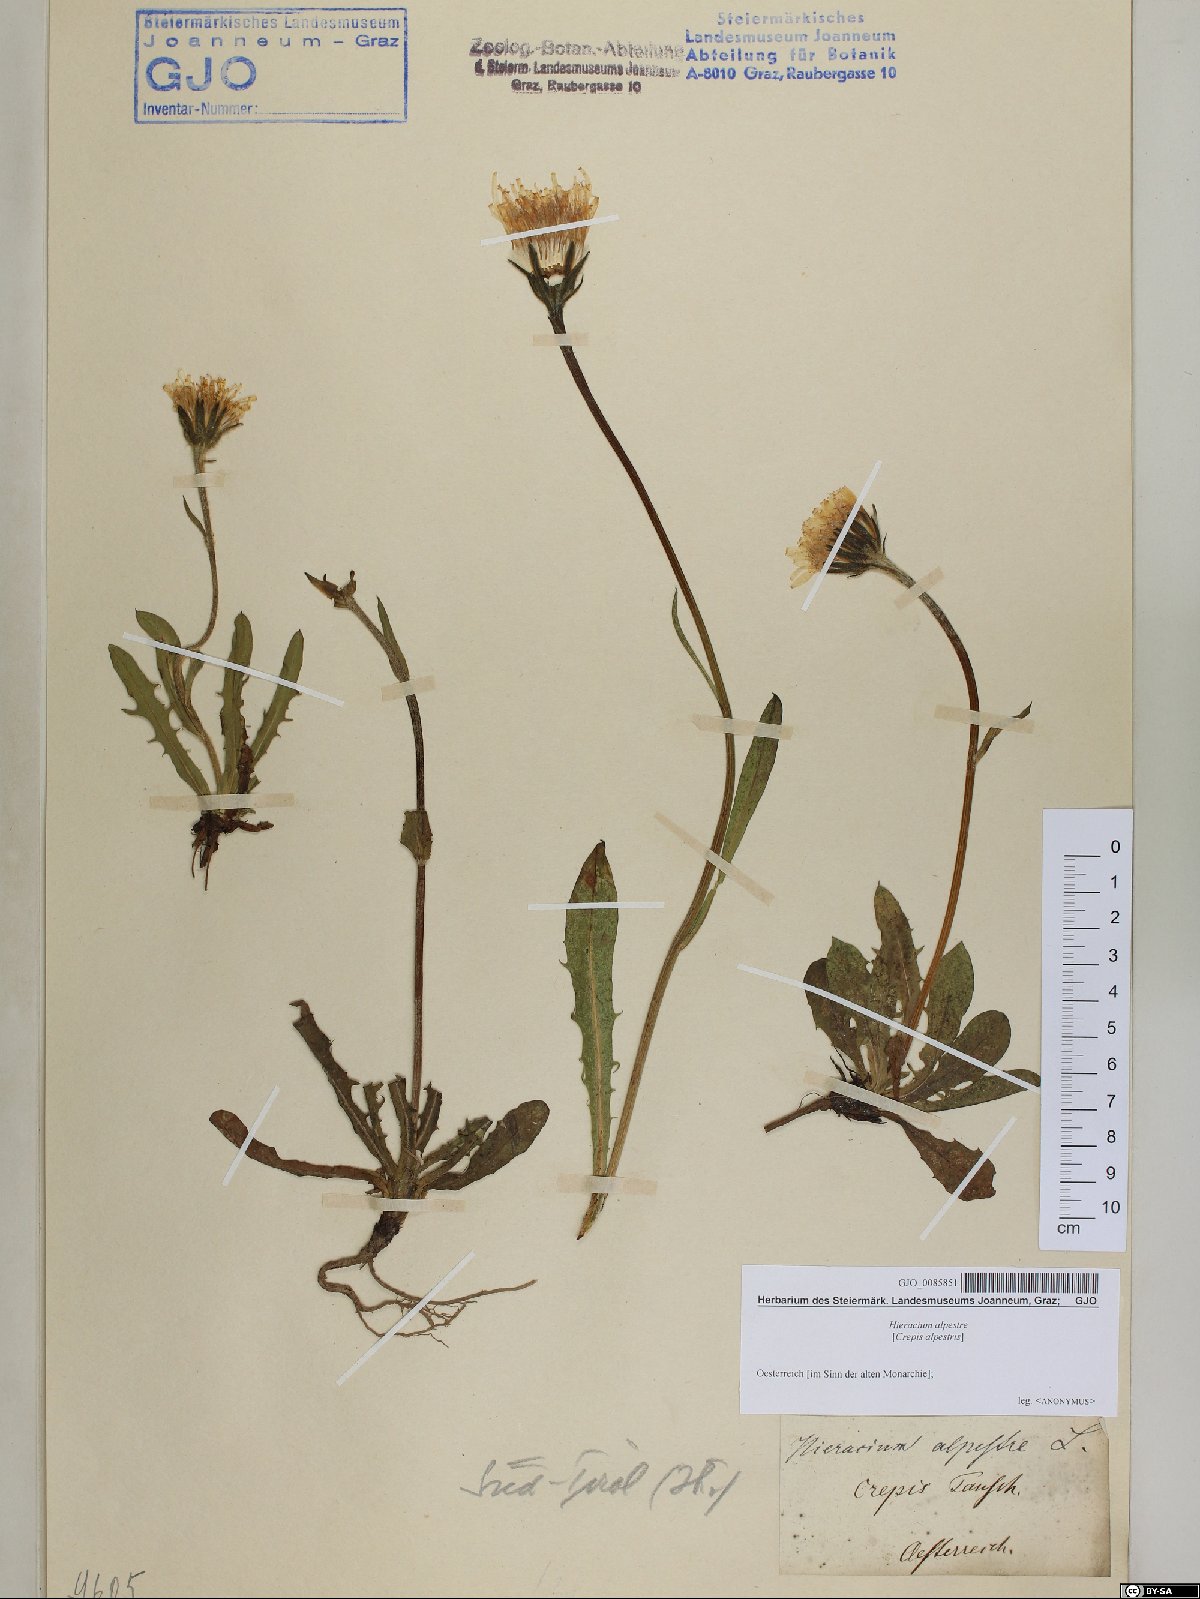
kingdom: Plantae
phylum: Tracheophyta
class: Magnoliopsida
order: Asterales
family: Asteraceae
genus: Crepis
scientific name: Crepis alpestris
